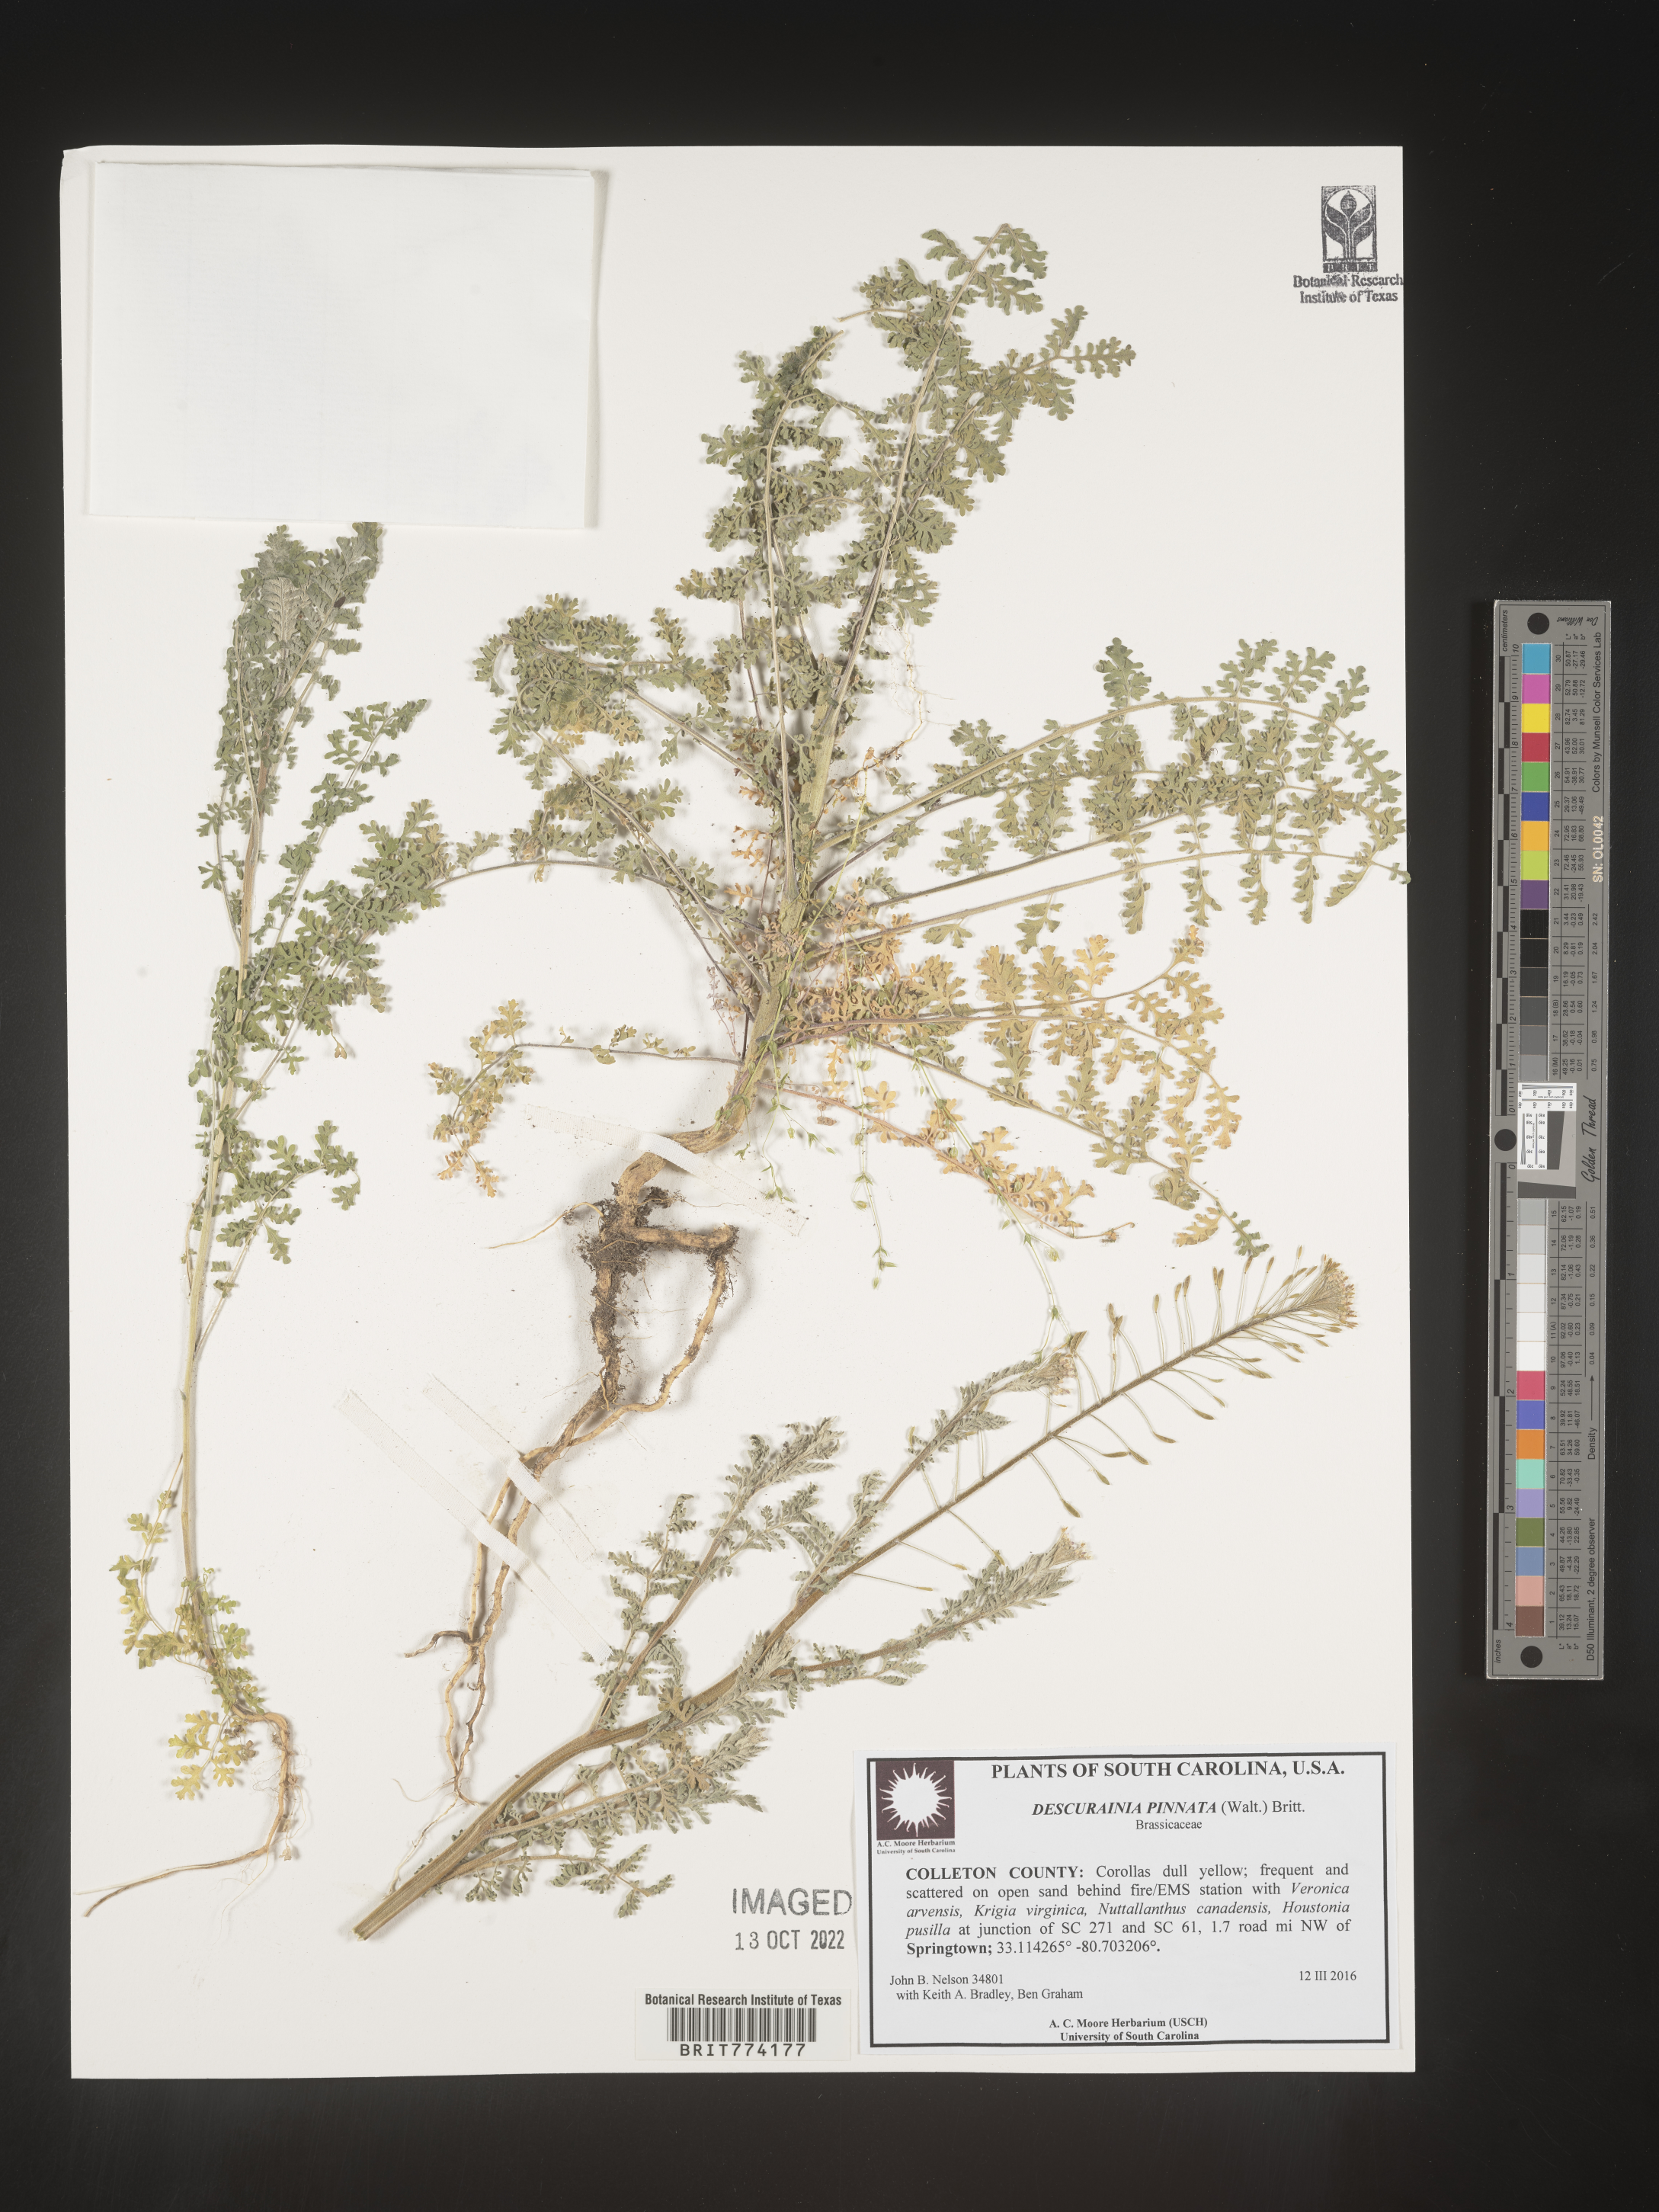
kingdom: Plantae
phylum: Tracheophyta
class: Magnoliopsida
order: Brassicales
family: Brassicaceae
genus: Descurainia
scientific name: Descurainia pinnata
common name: Western tansy mustard
